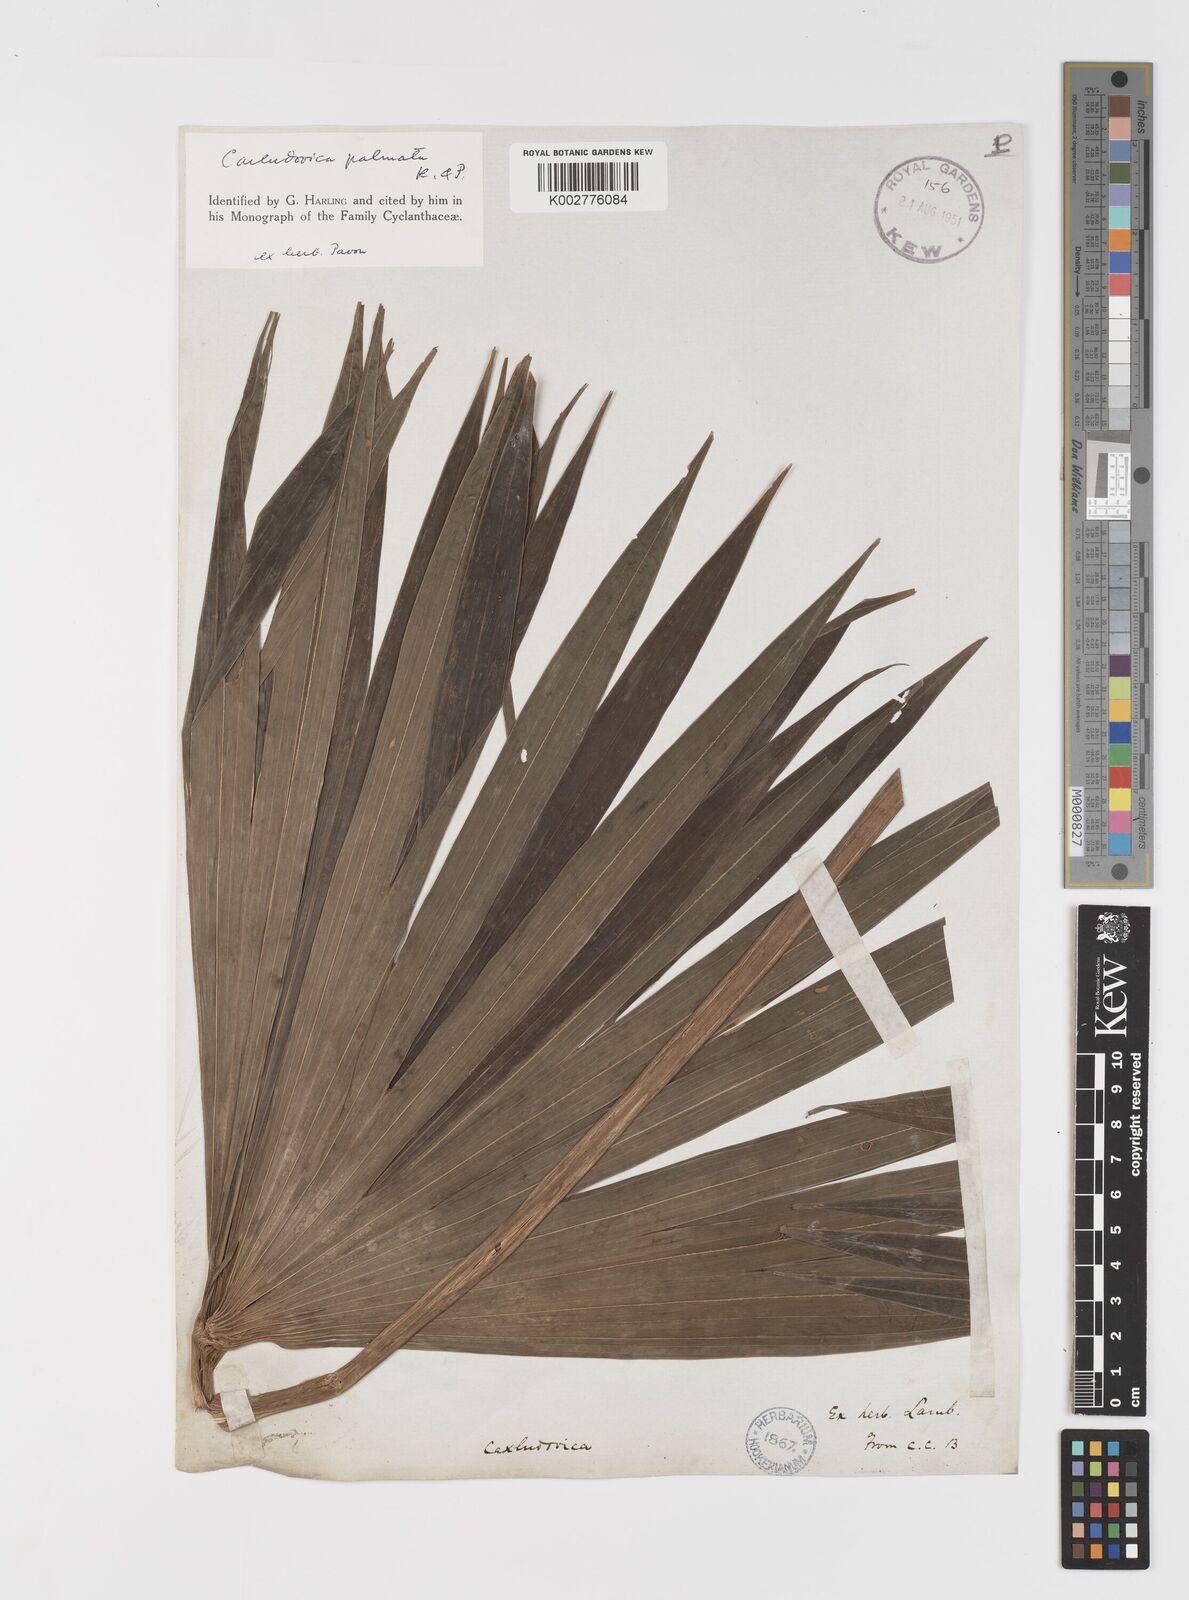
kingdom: Plantae
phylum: Tracheophyta
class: Liliopsida
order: Pandanales
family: Cyclanthaceae
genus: Carludovica
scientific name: Carludovica palmata
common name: Panama hat plant
